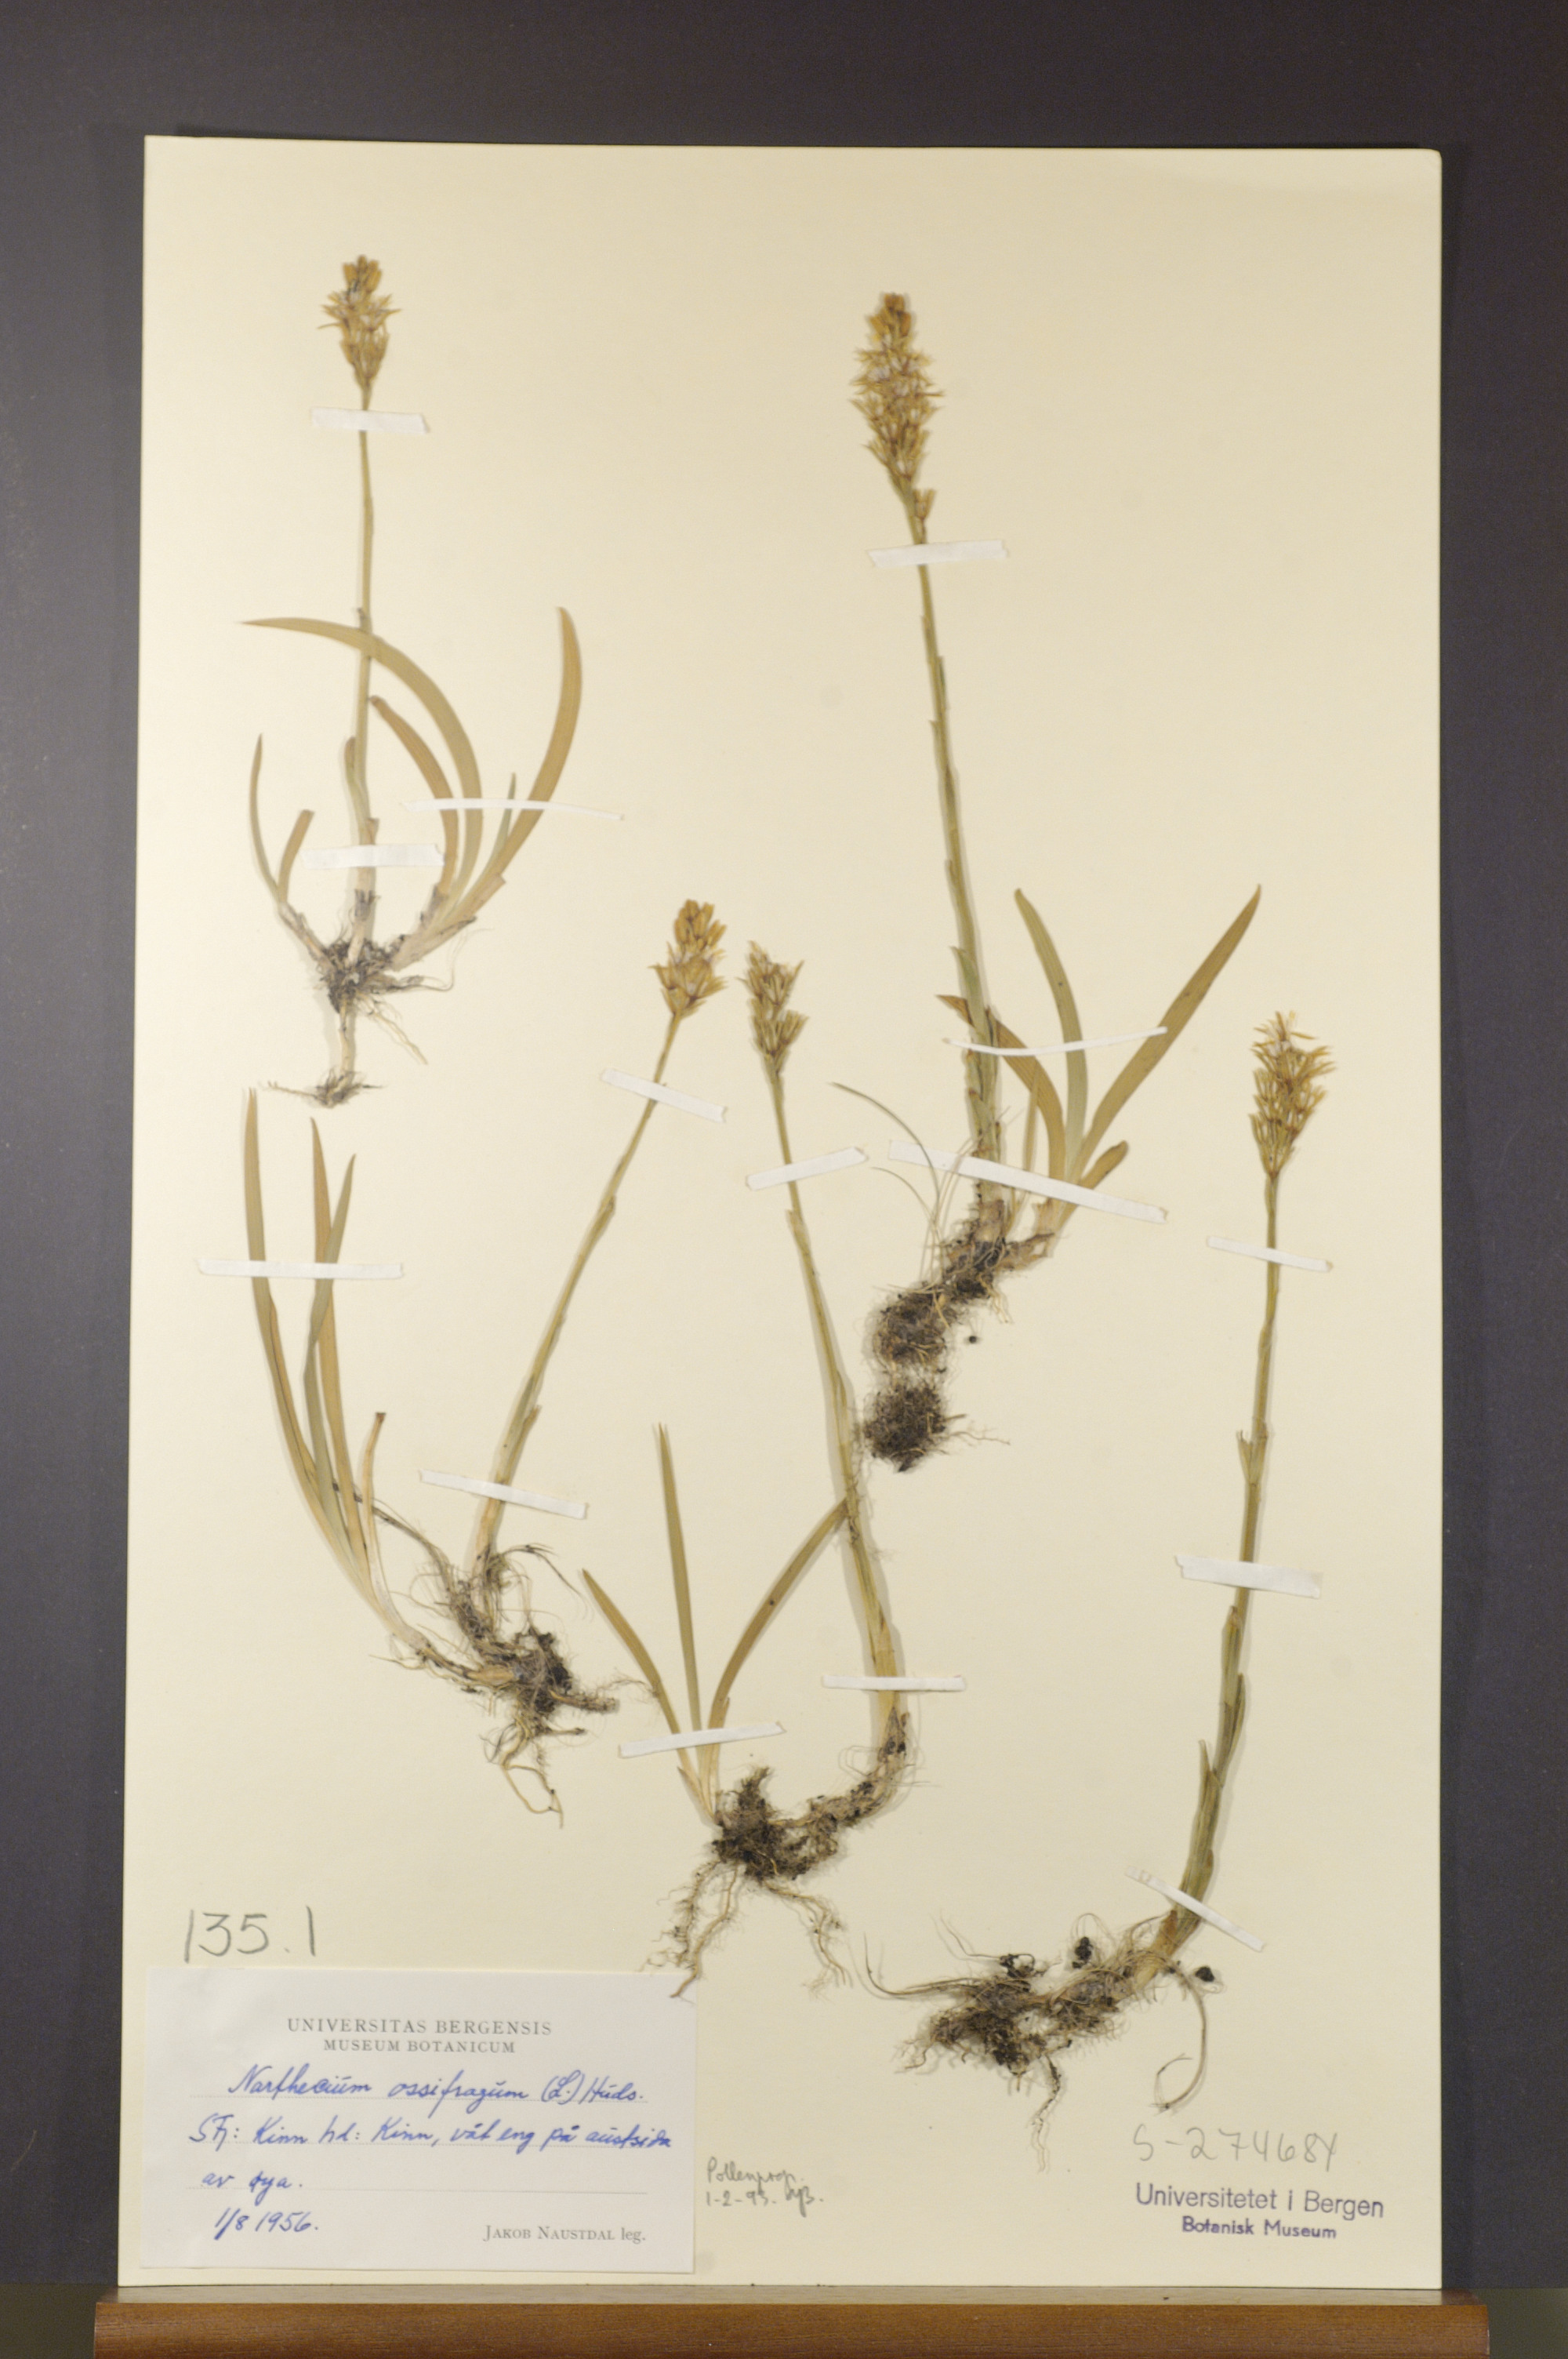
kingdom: Plantae
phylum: Tracheophyta
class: Liliopsida
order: Dioscoreales
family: Nartheciaceae
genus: Narthecium
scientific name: Narthecium ossifragum
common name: Bog asphodel
